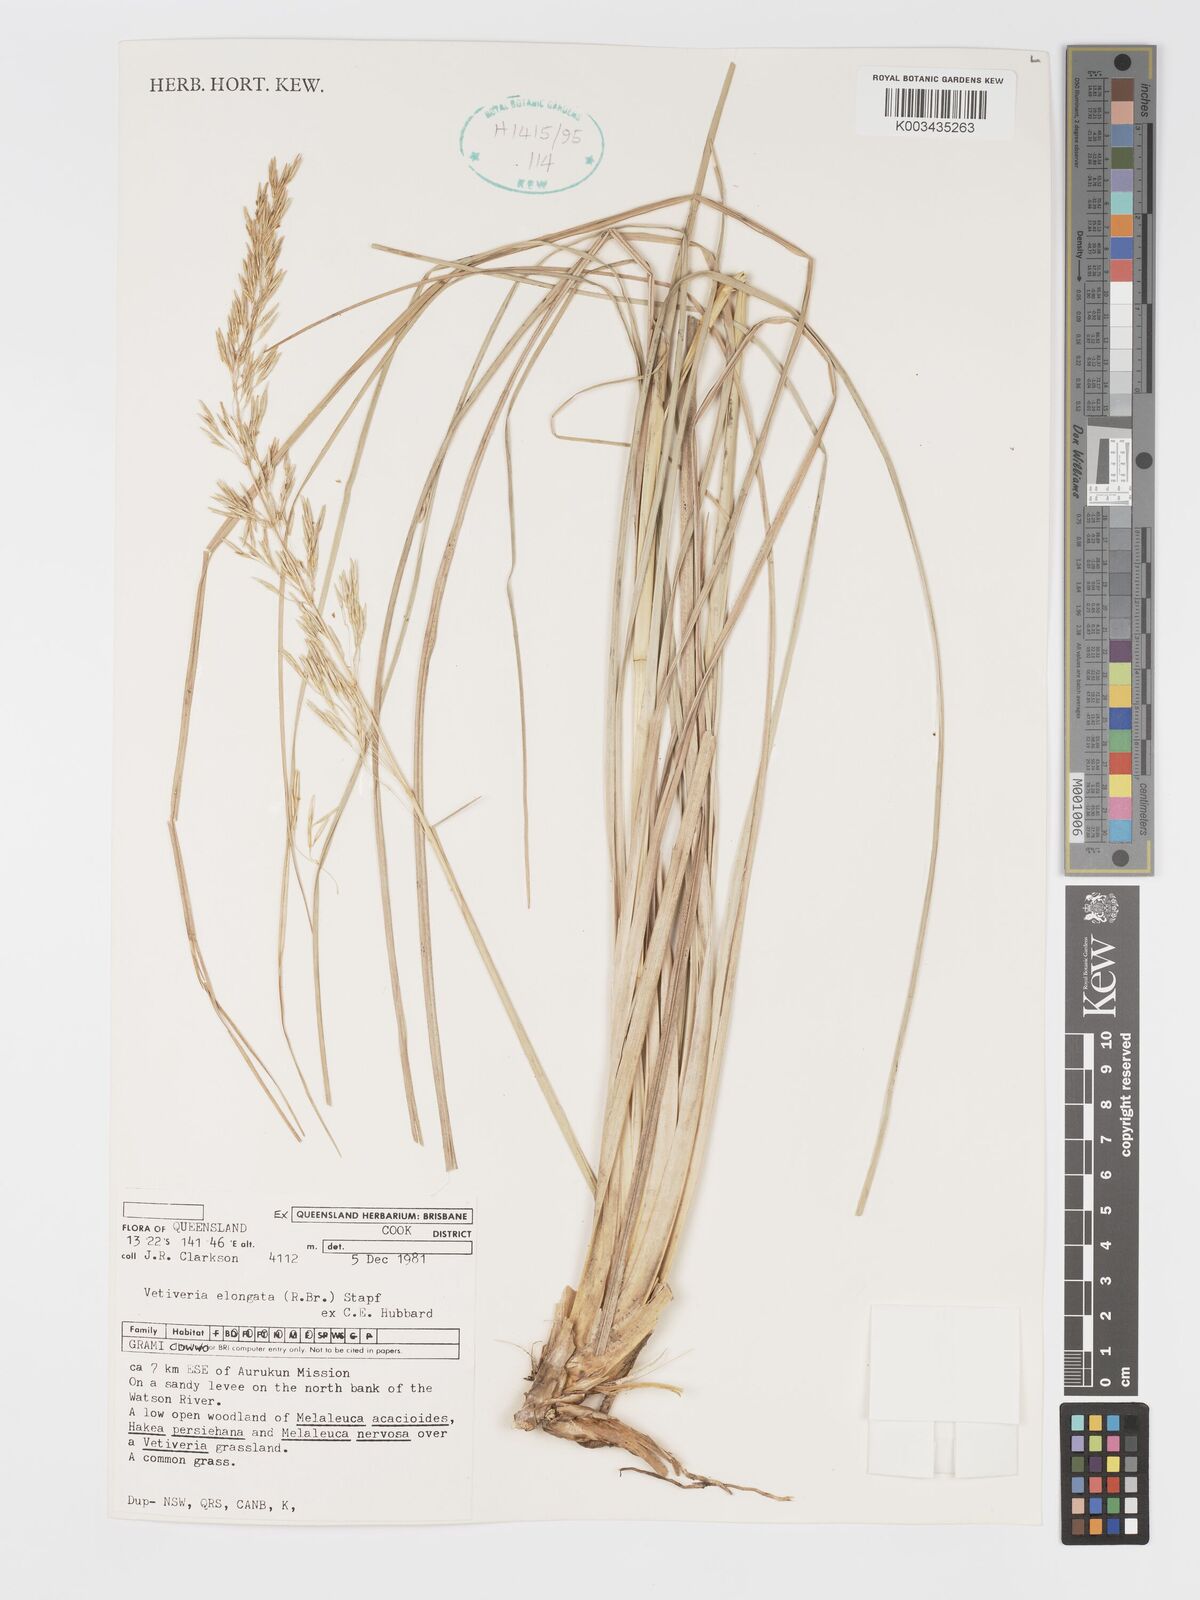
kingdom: Plantae
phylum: Tracheophyta
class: Liliopsida
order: Poales
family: Poaceae
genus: Chrysopogon
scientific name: Chrysopogon elongatus
